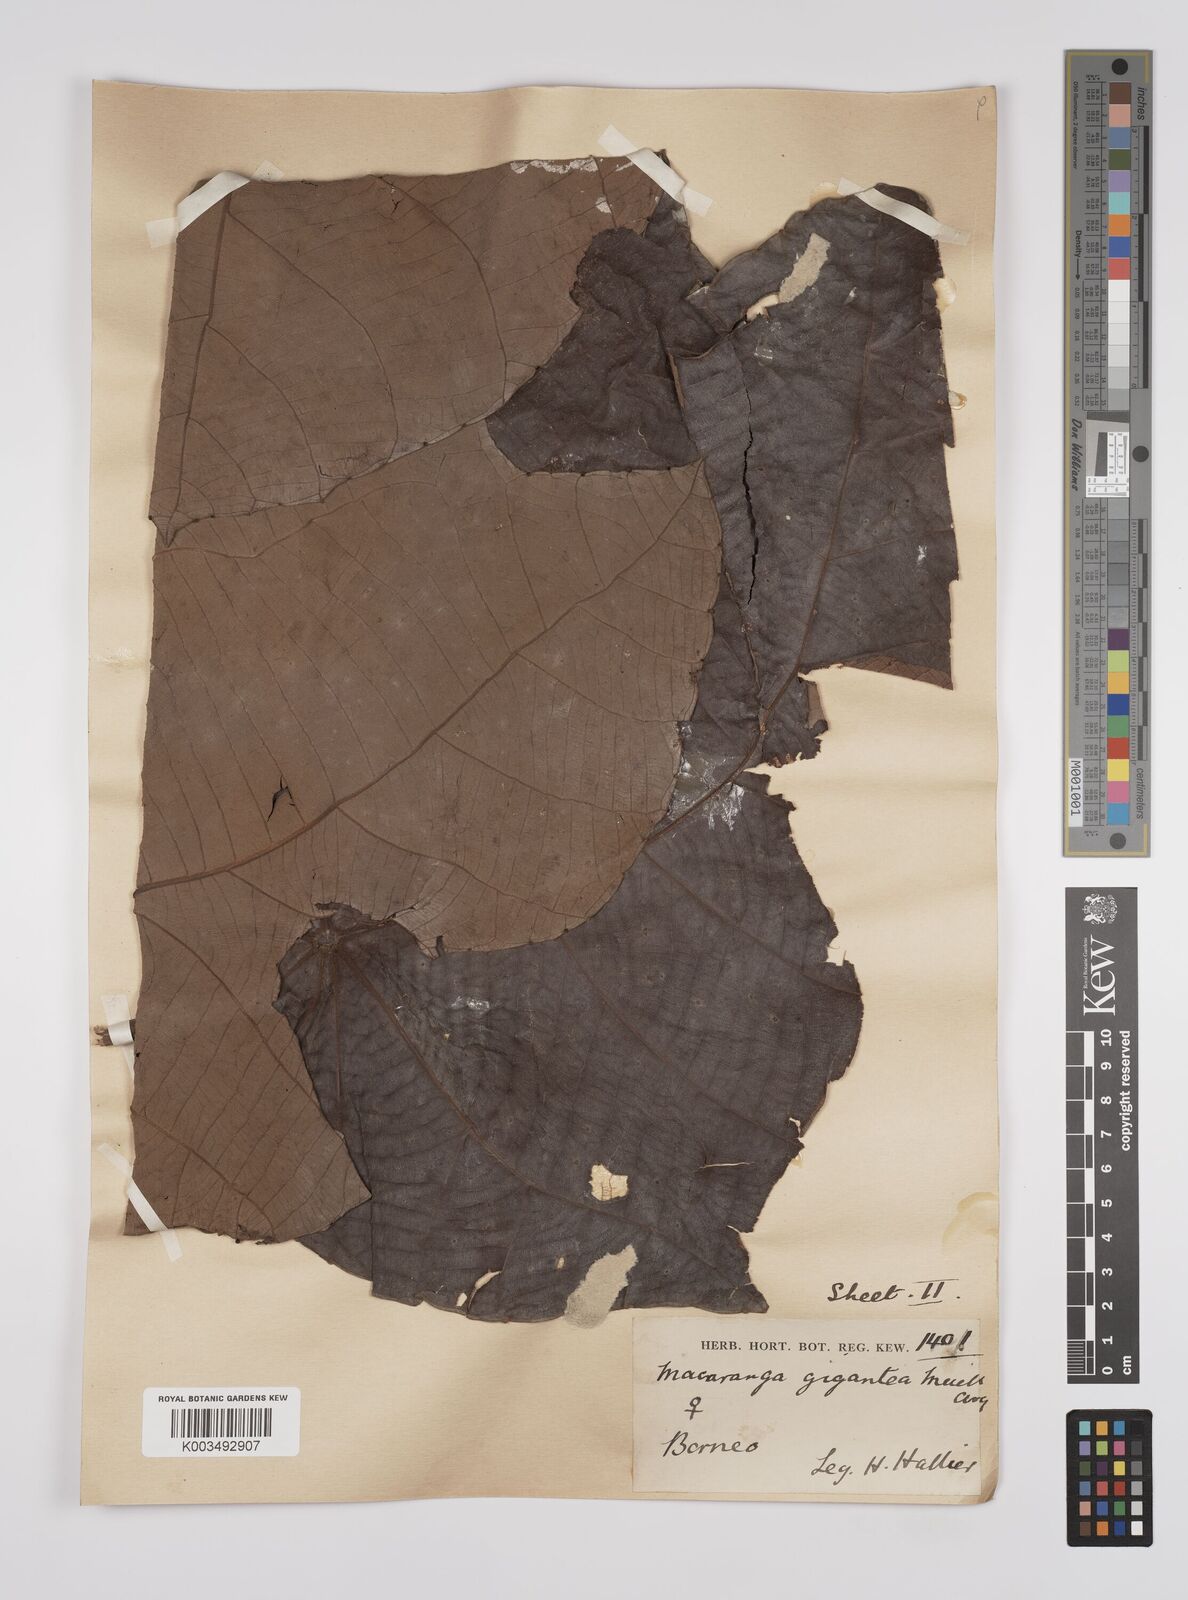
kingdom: Plantae
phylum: Tracheophyta
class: Magnoliopsida
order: Malpighiales
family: Euphorbiaceae
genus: Macaranga
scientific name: Macaranga gigantea
